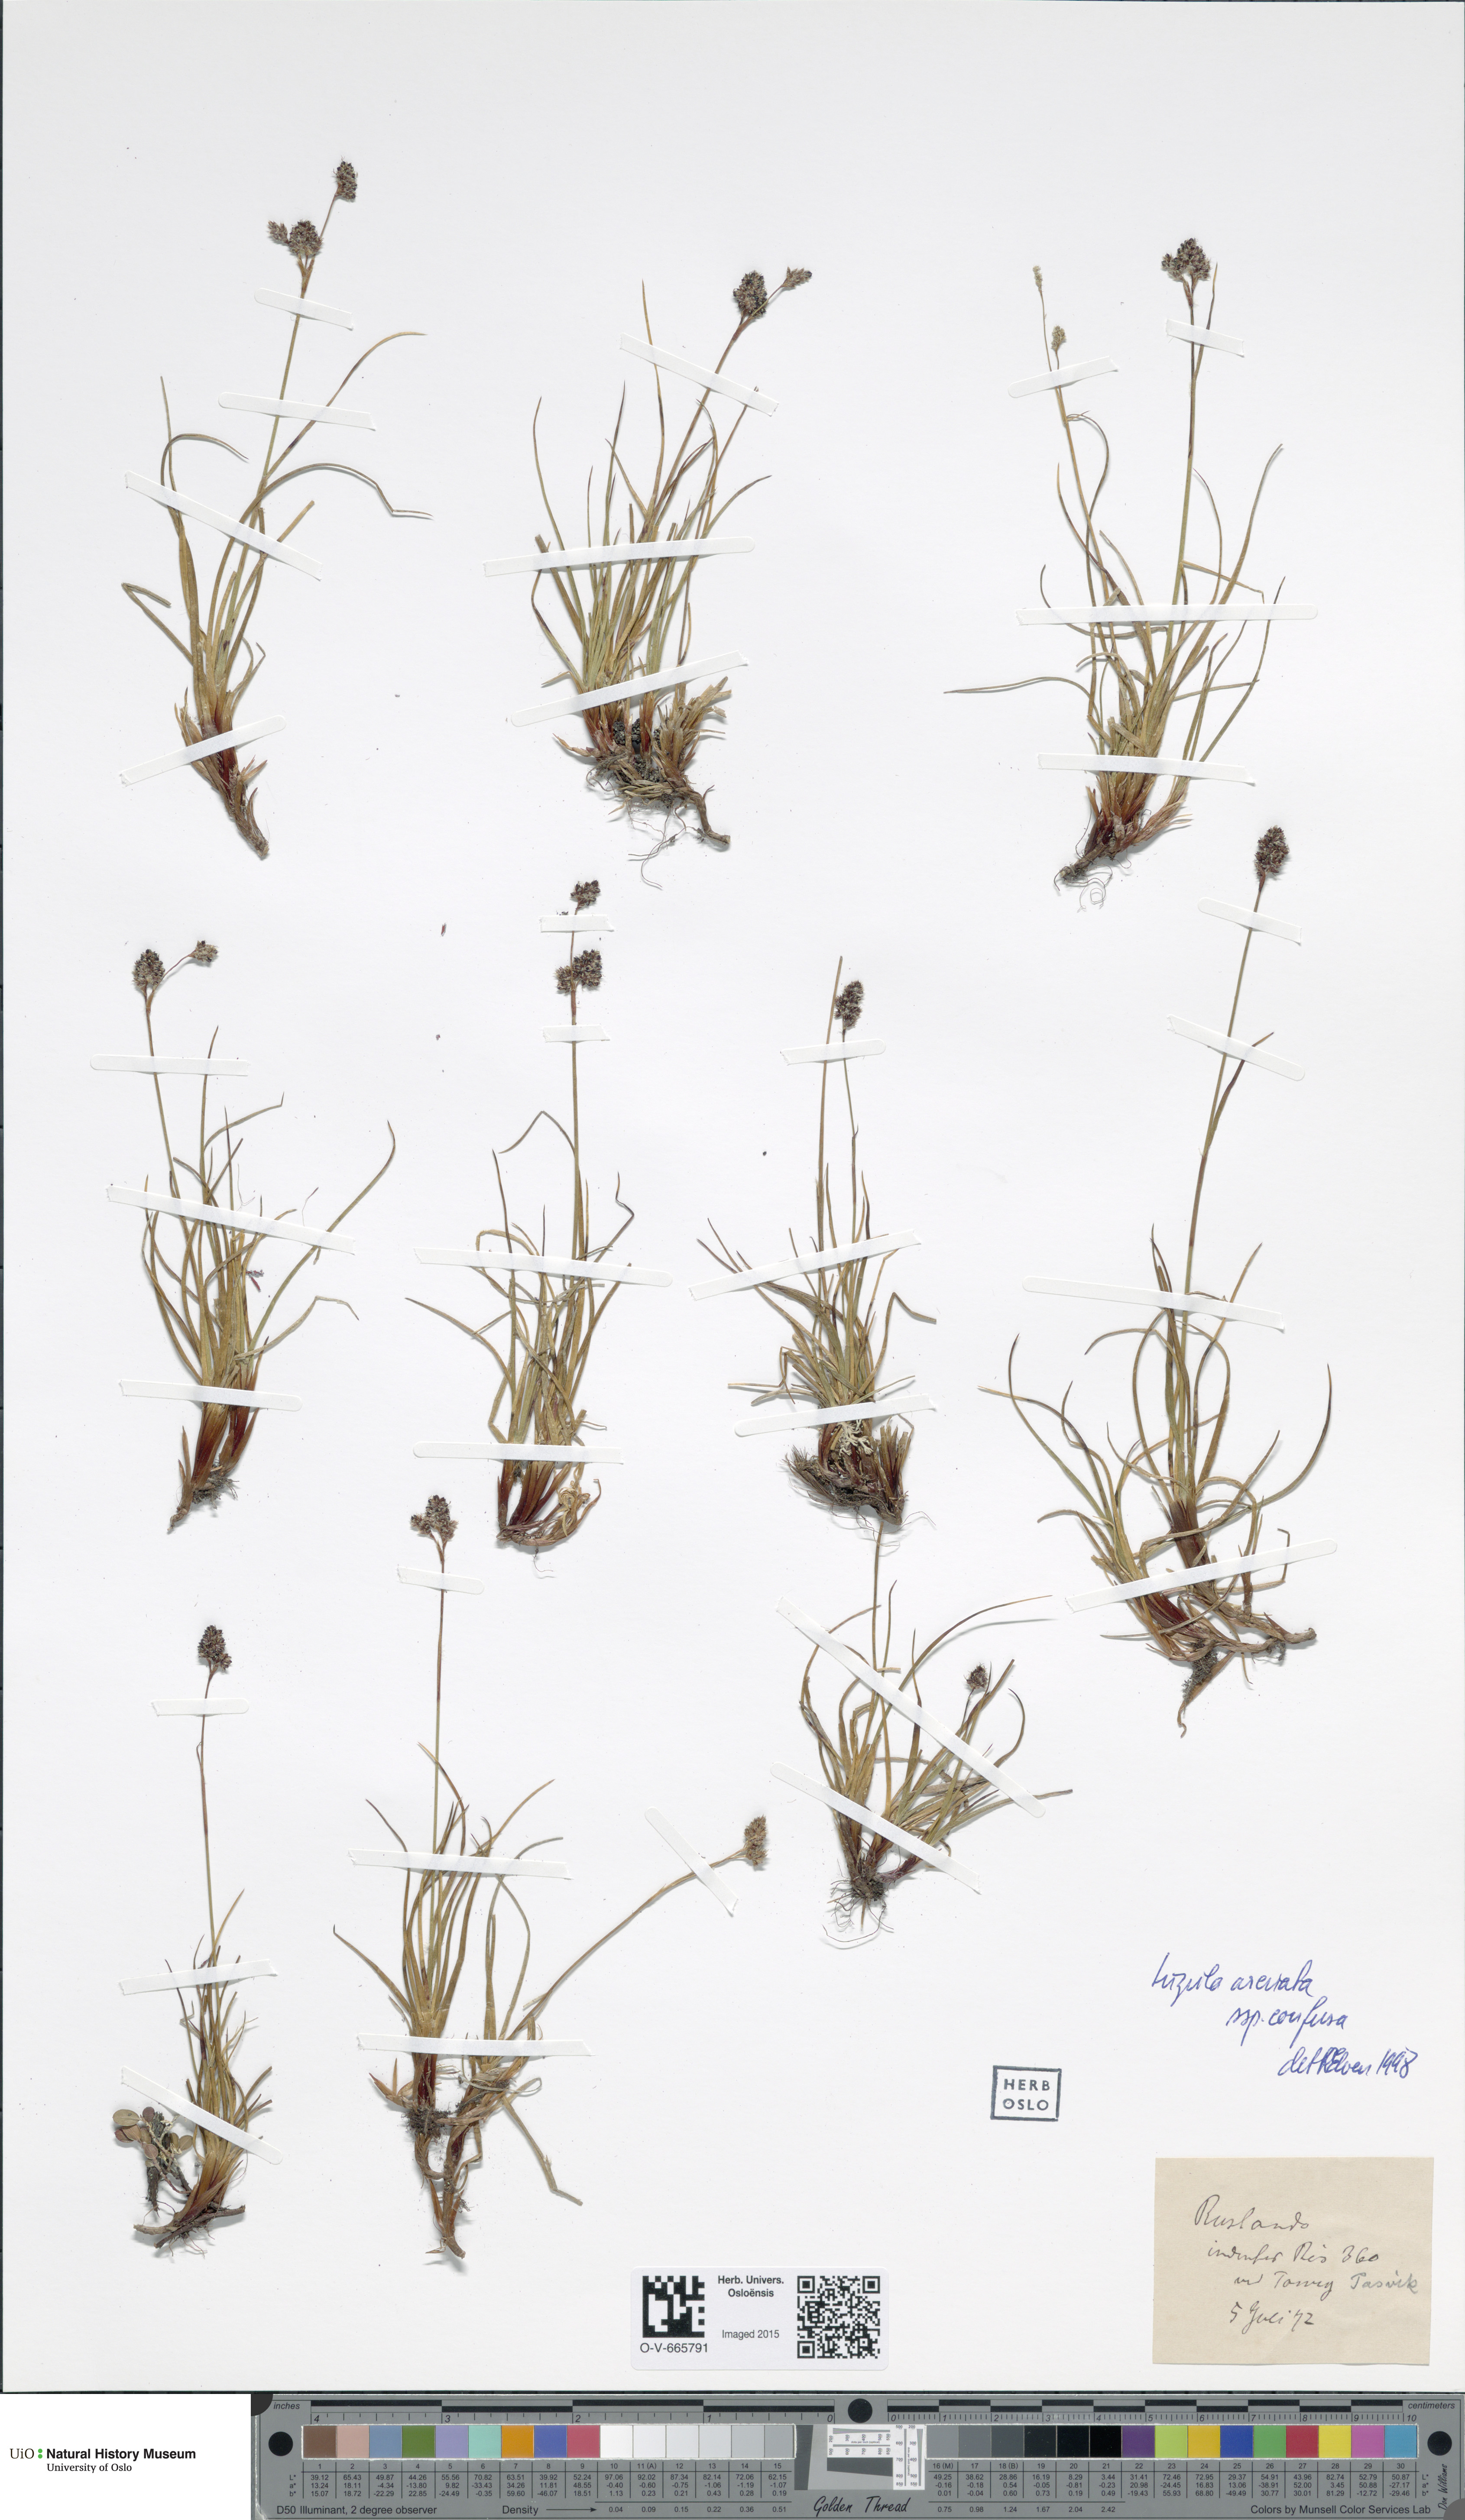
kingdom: Plantae
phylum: Tracheophyta
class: Liliopsida
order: Poales
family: Juncaceae
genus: Luzula
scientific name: Luzula confusa
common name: Northern wood rush
